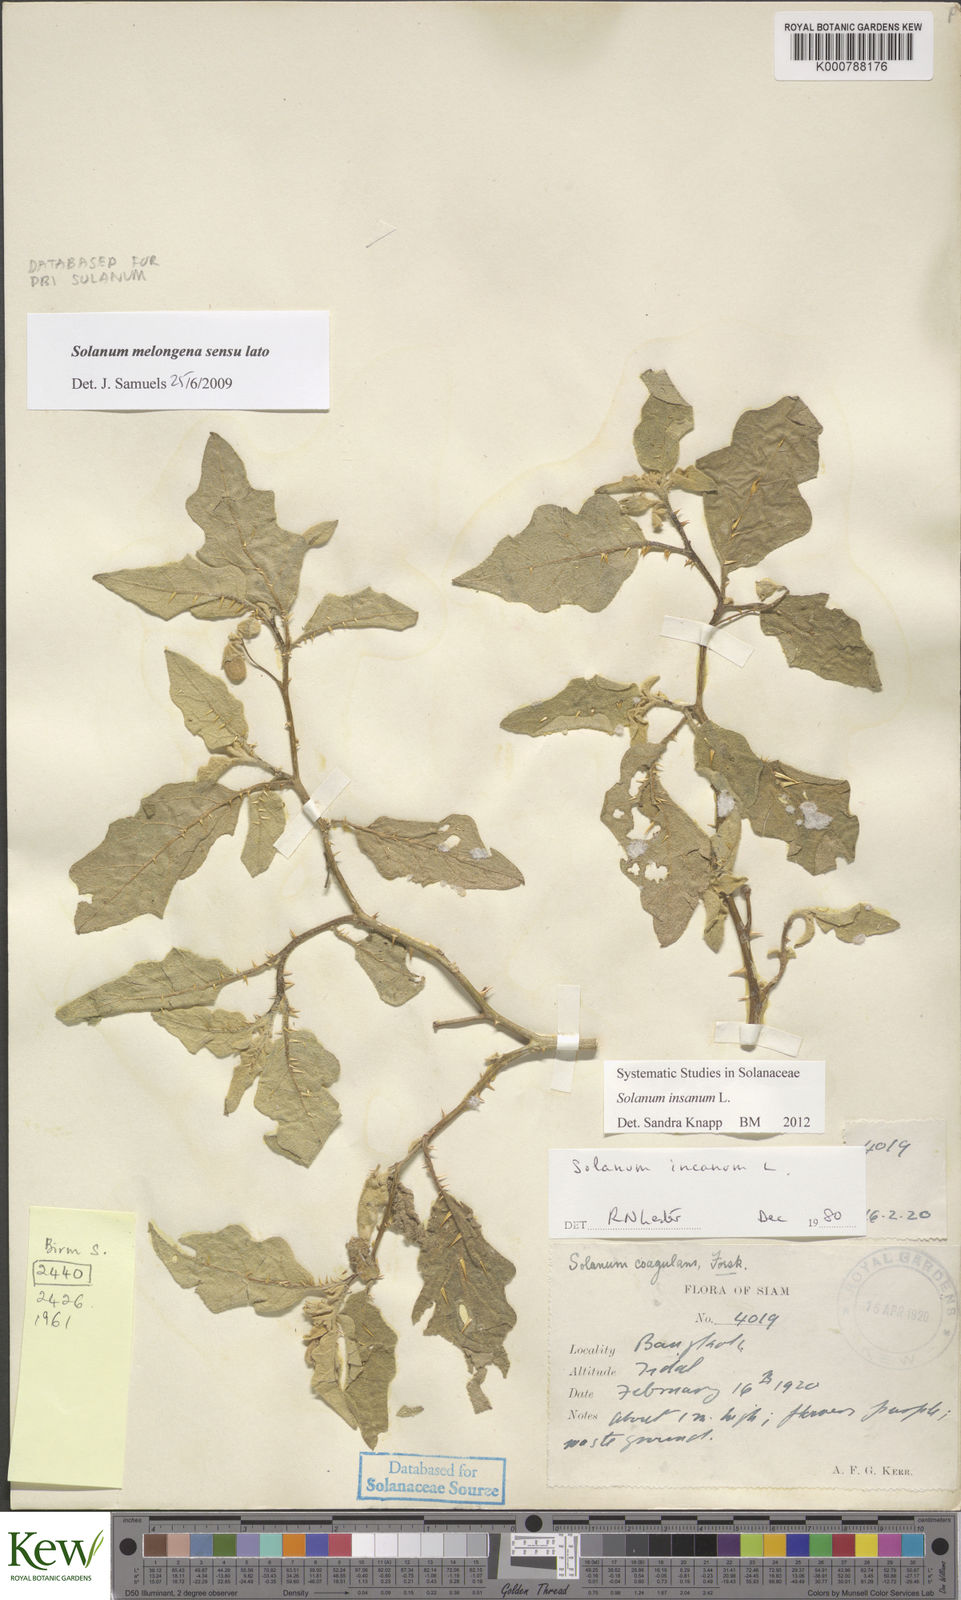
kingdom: Plantae
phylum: Tracheophyta
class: Magnoliopsida
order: Solanales
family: Solanaceae
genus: Solanum
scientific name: Solanum melongena
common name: Eggplant
